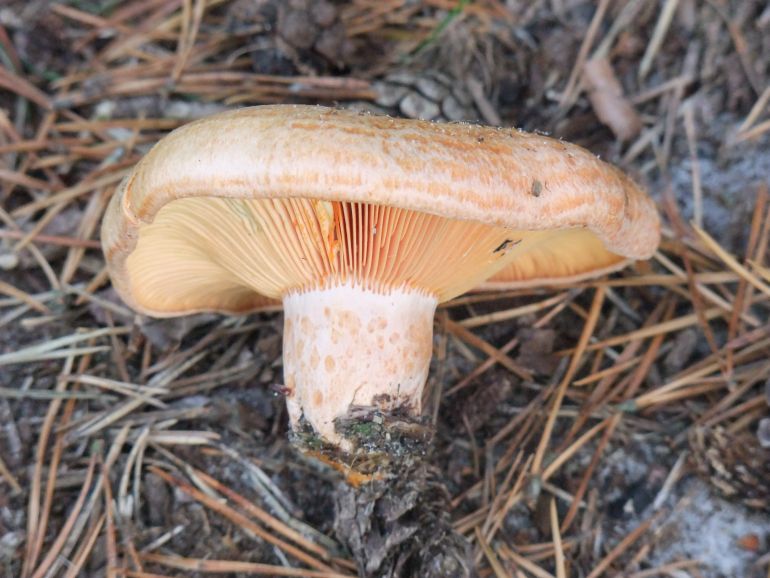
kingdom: Fungi
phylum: Basidiomycota
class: Agaricomycetes
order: Russulales
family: Russulaceae
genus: Lactarius
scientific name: Lactarius deliciosus
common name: velsmagende mælkehat
